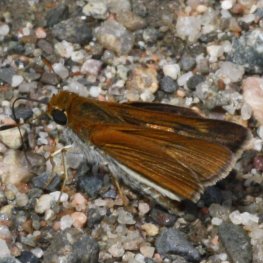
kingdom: Animalia
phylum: Arthropoda
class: Insecta
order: Lepidoptera
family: Hesperiidae
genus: Euphyes
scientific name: Euphyes bimacula
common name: Two-spotted Skipper
